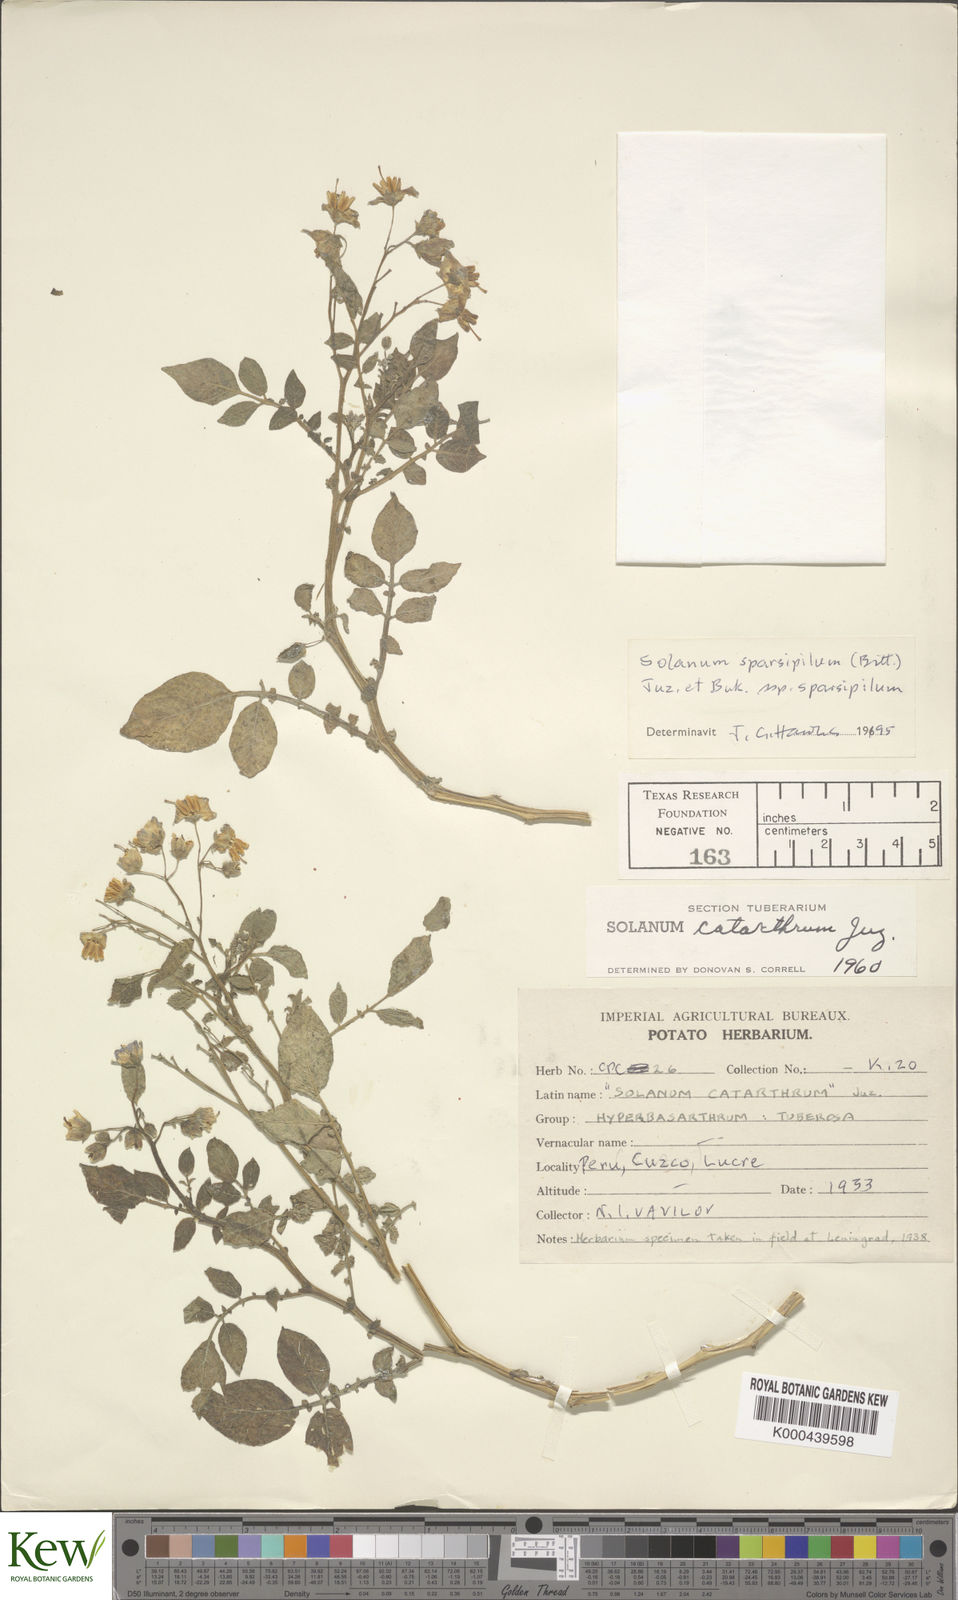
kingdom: Plantae
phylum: Tracheophyta
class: Magnoliopsida
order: Solanales
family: Solanaceae
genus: Solanum
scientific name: Solanum brevicaule
